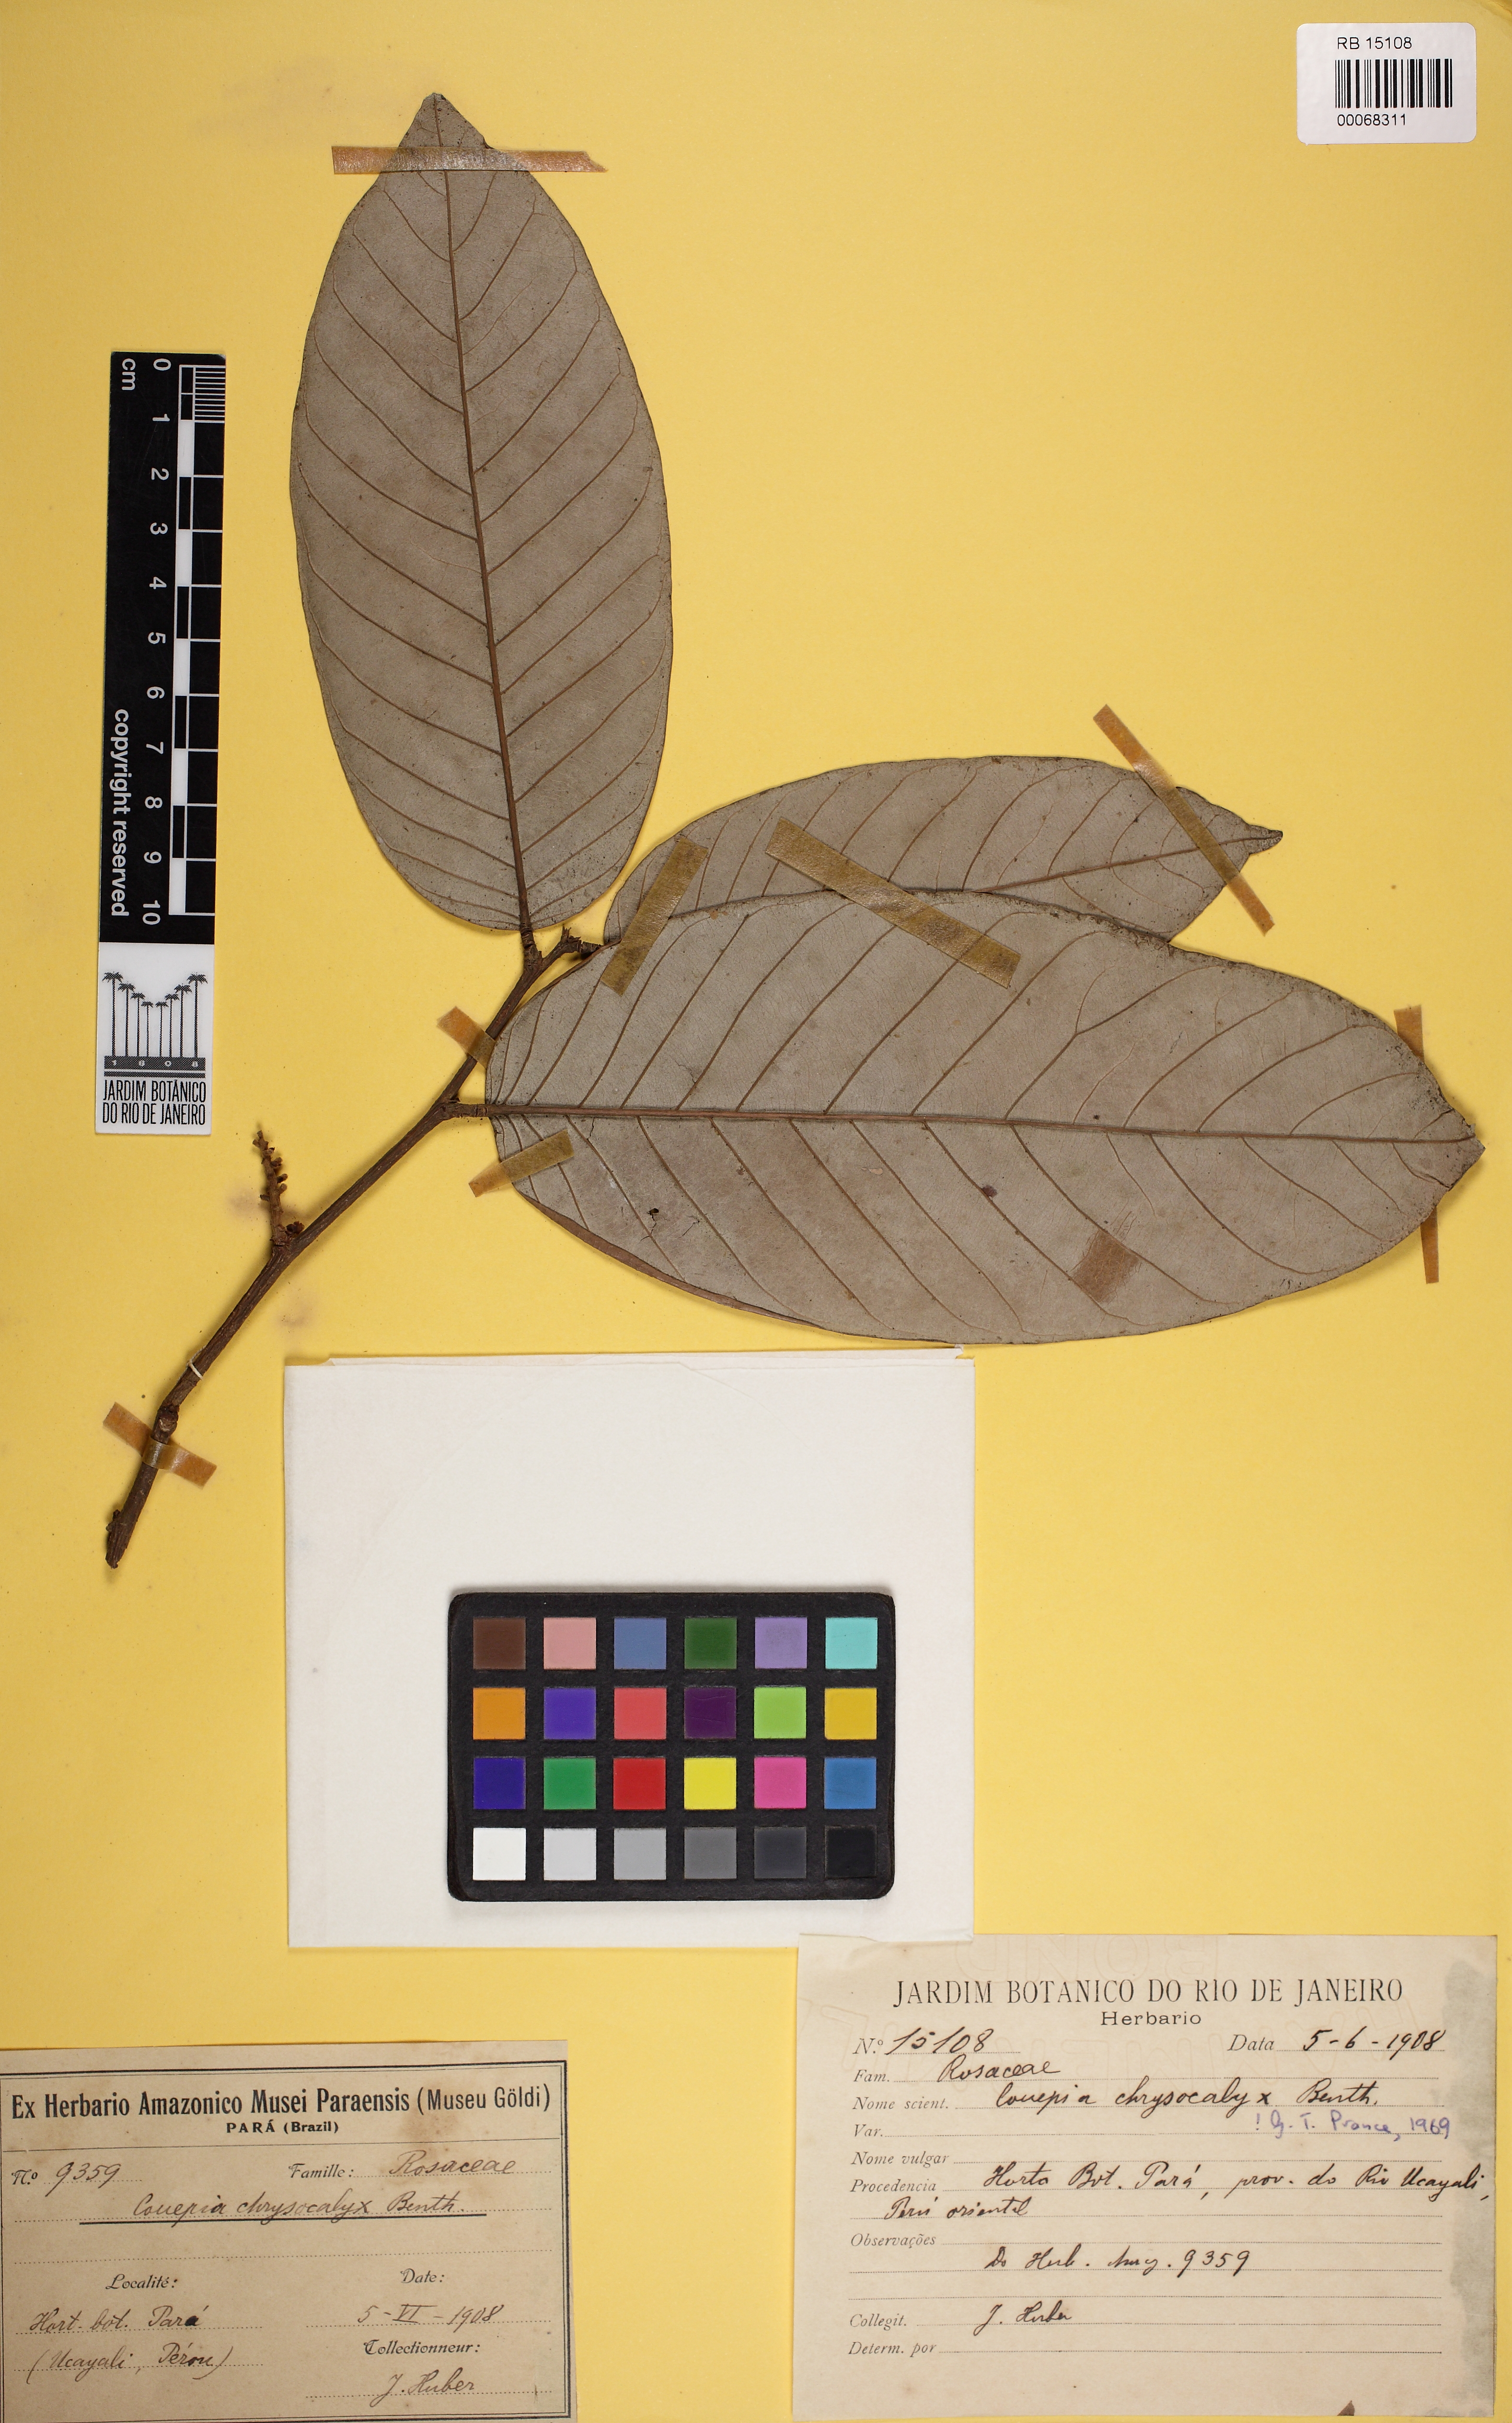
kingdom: Plantae
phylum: Tracheophyta
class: Magnoliopsida
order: Malpighiales
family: Chrysobalanaceae
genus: Couepia
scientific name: Couepia chrysocalyx
